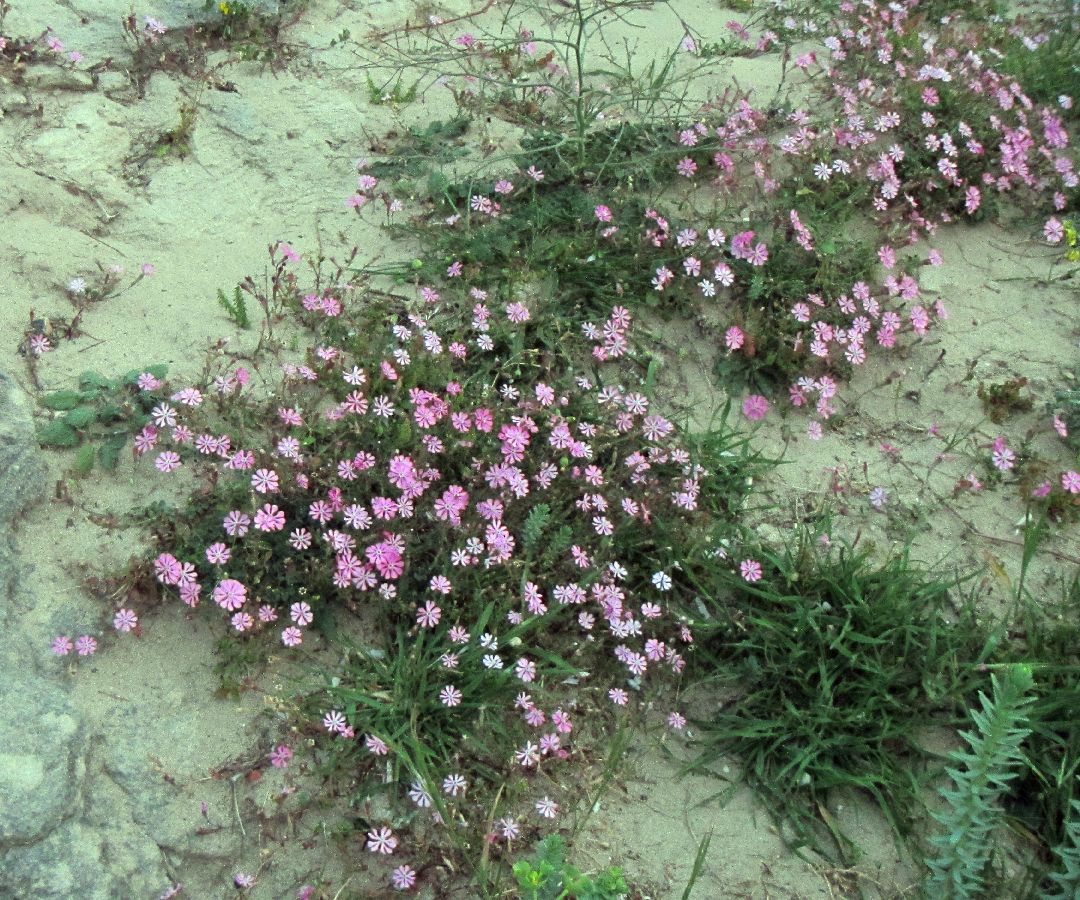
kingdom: Plantae
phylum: Tracheophyta
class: Magnoliopsida
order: Caryophyllales
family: Caryophyllaceae
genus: Silene
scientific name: Silene colorata
